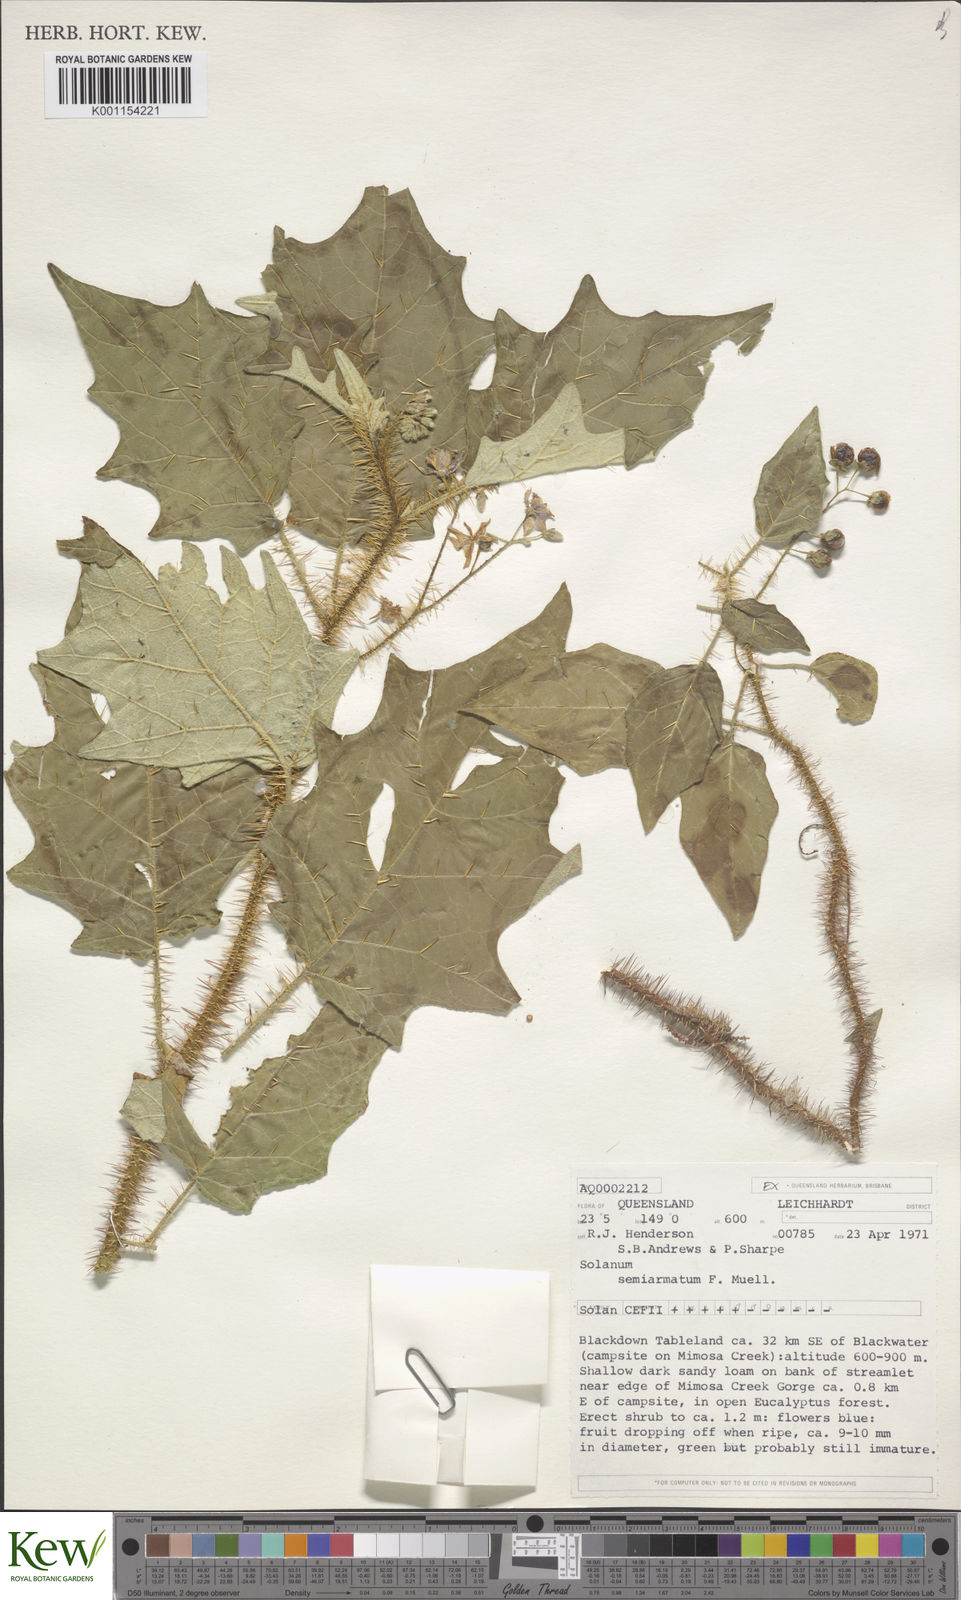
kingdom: Plantae
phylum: Tracheophyta
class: Magnoliopsida
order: Solanales
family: Solanaceae
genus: Solanum
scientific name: Solanum semiarmatum
